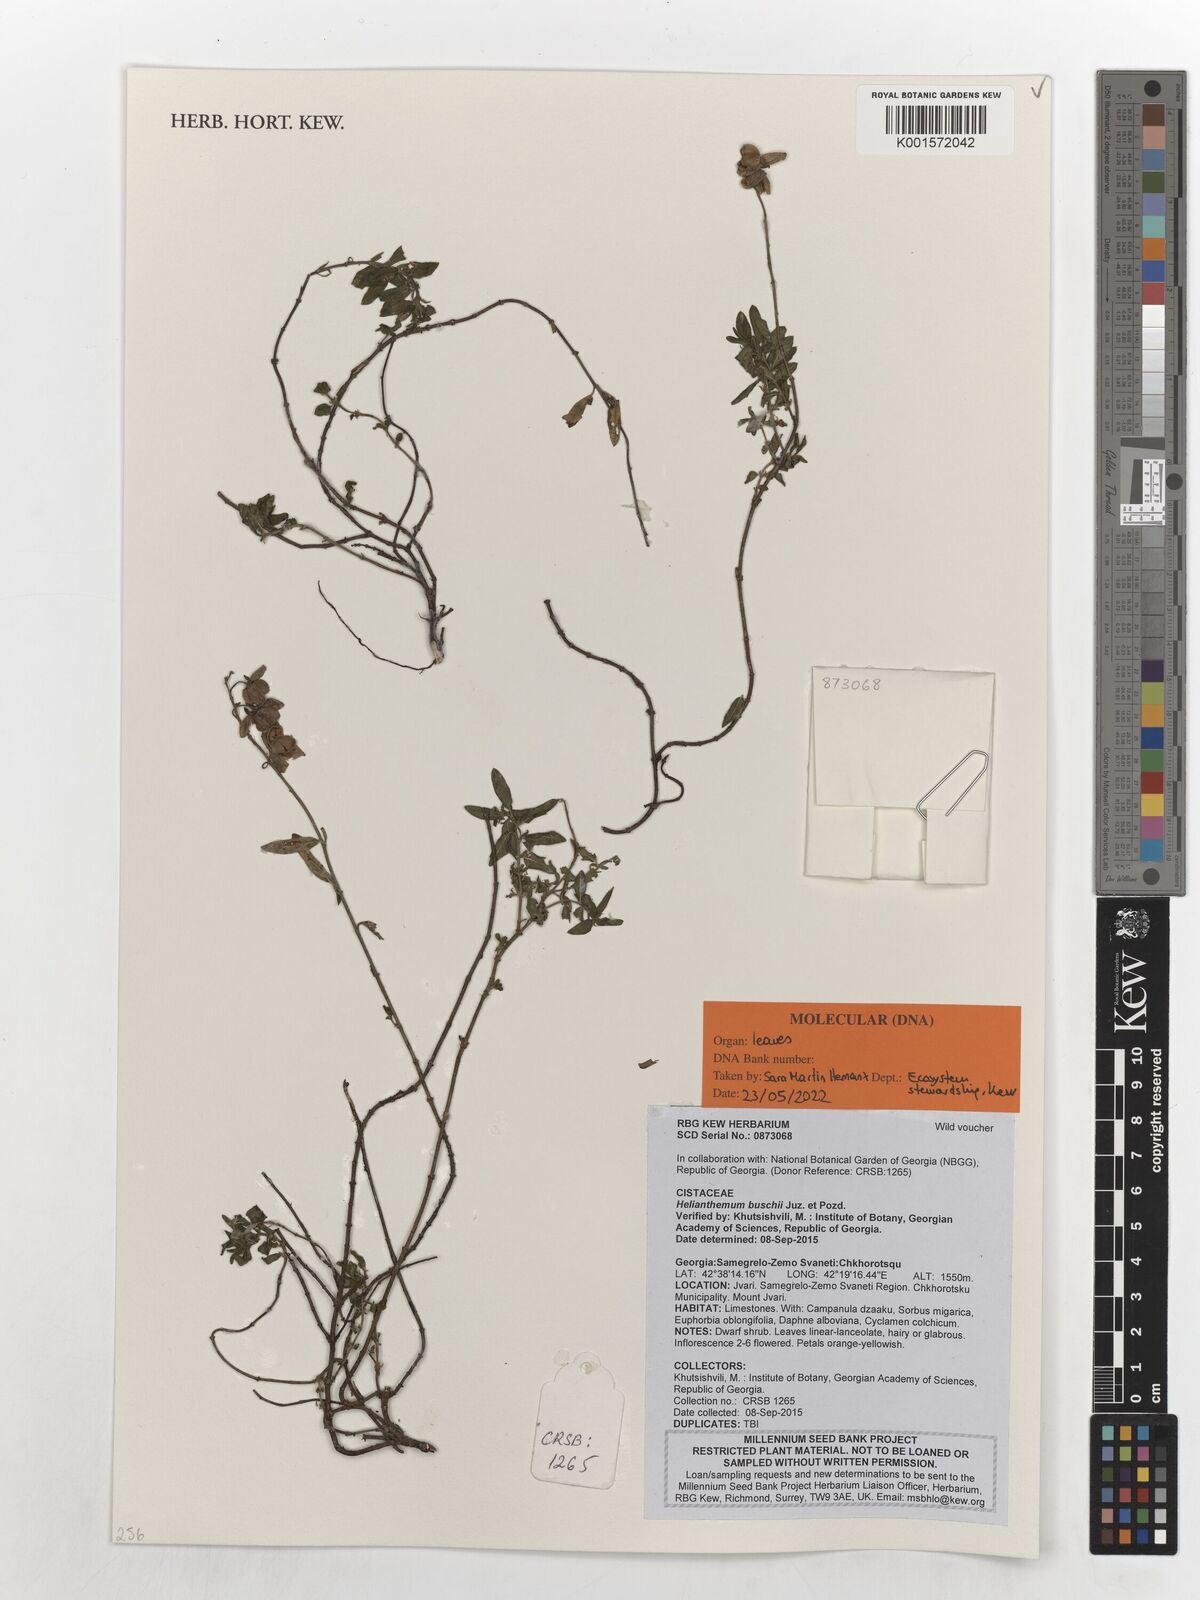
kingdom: Plantae
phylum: Tracheophyta
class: Magnoliopsida
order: Malvales
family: Cistaceae
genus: Helianthemum
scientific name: Helianthemum buschii
